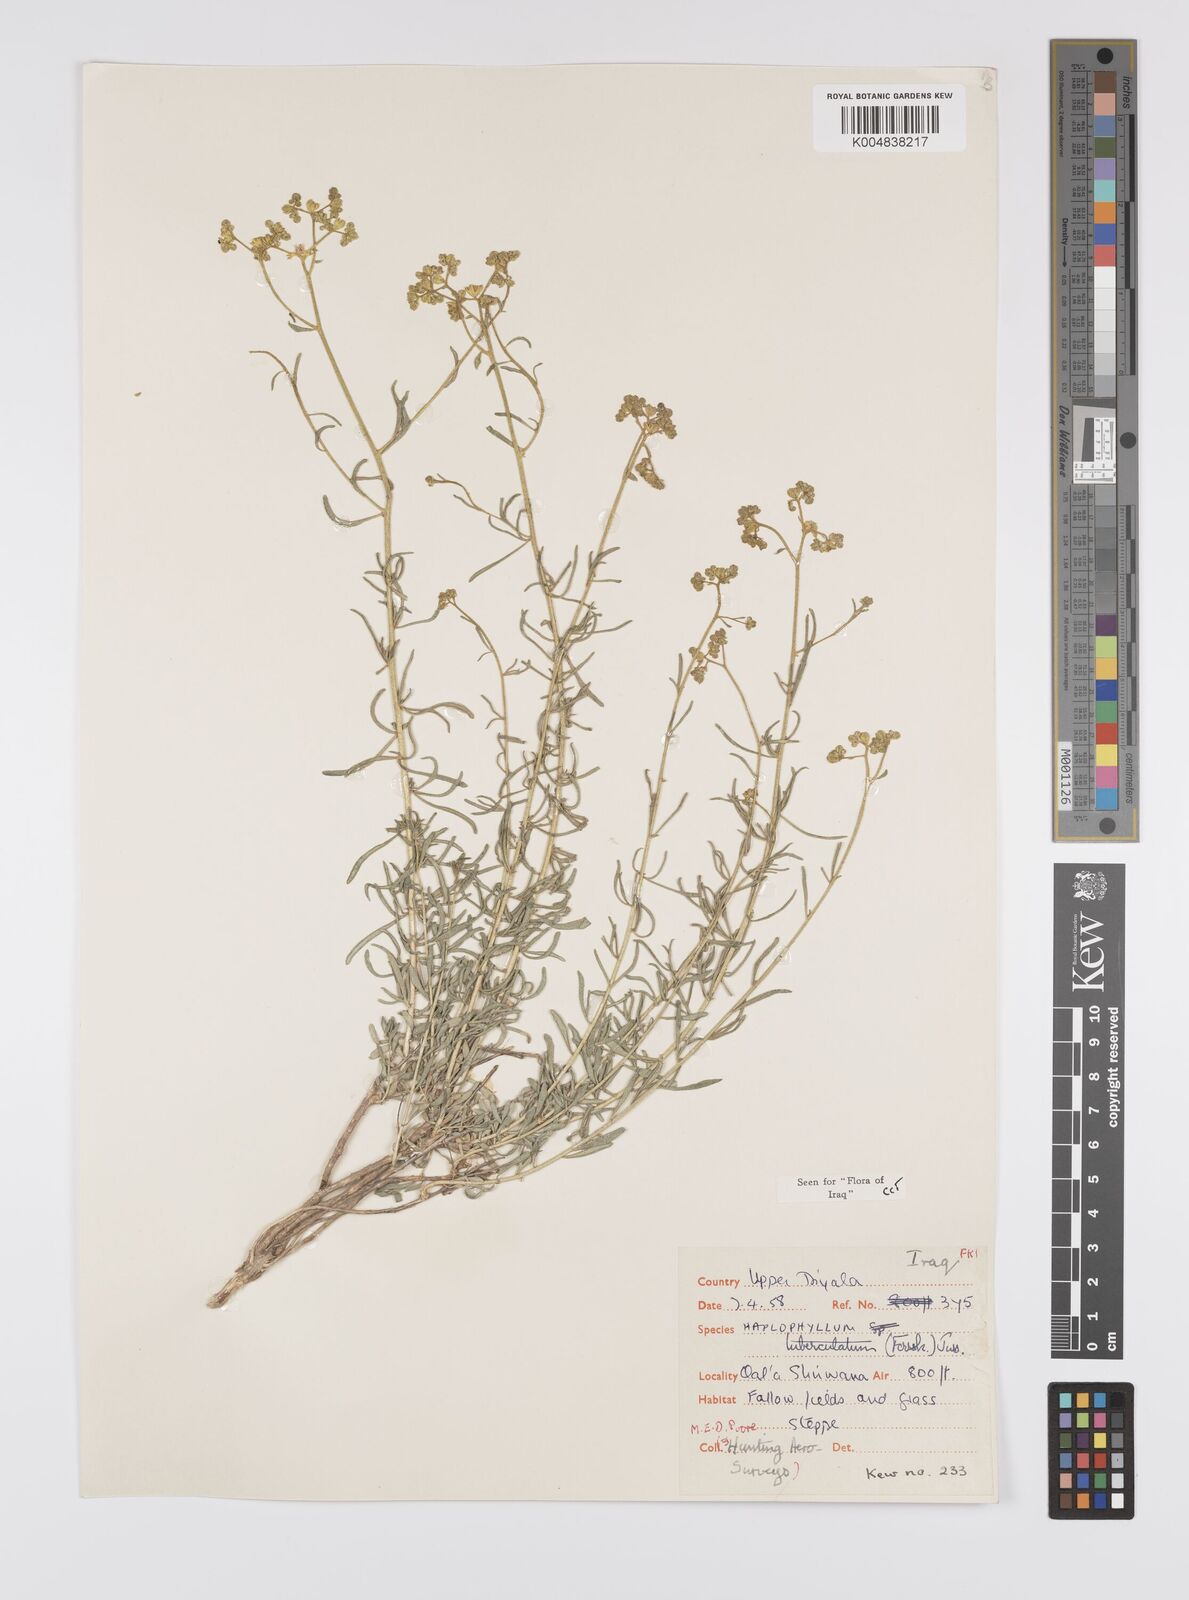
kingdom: Plantae
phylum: Tracheophyta
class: Magnoliopsida
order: Sapindales
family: Rutaceae
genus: Haplophyllum
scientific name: Haplophyllum tuberculatum
